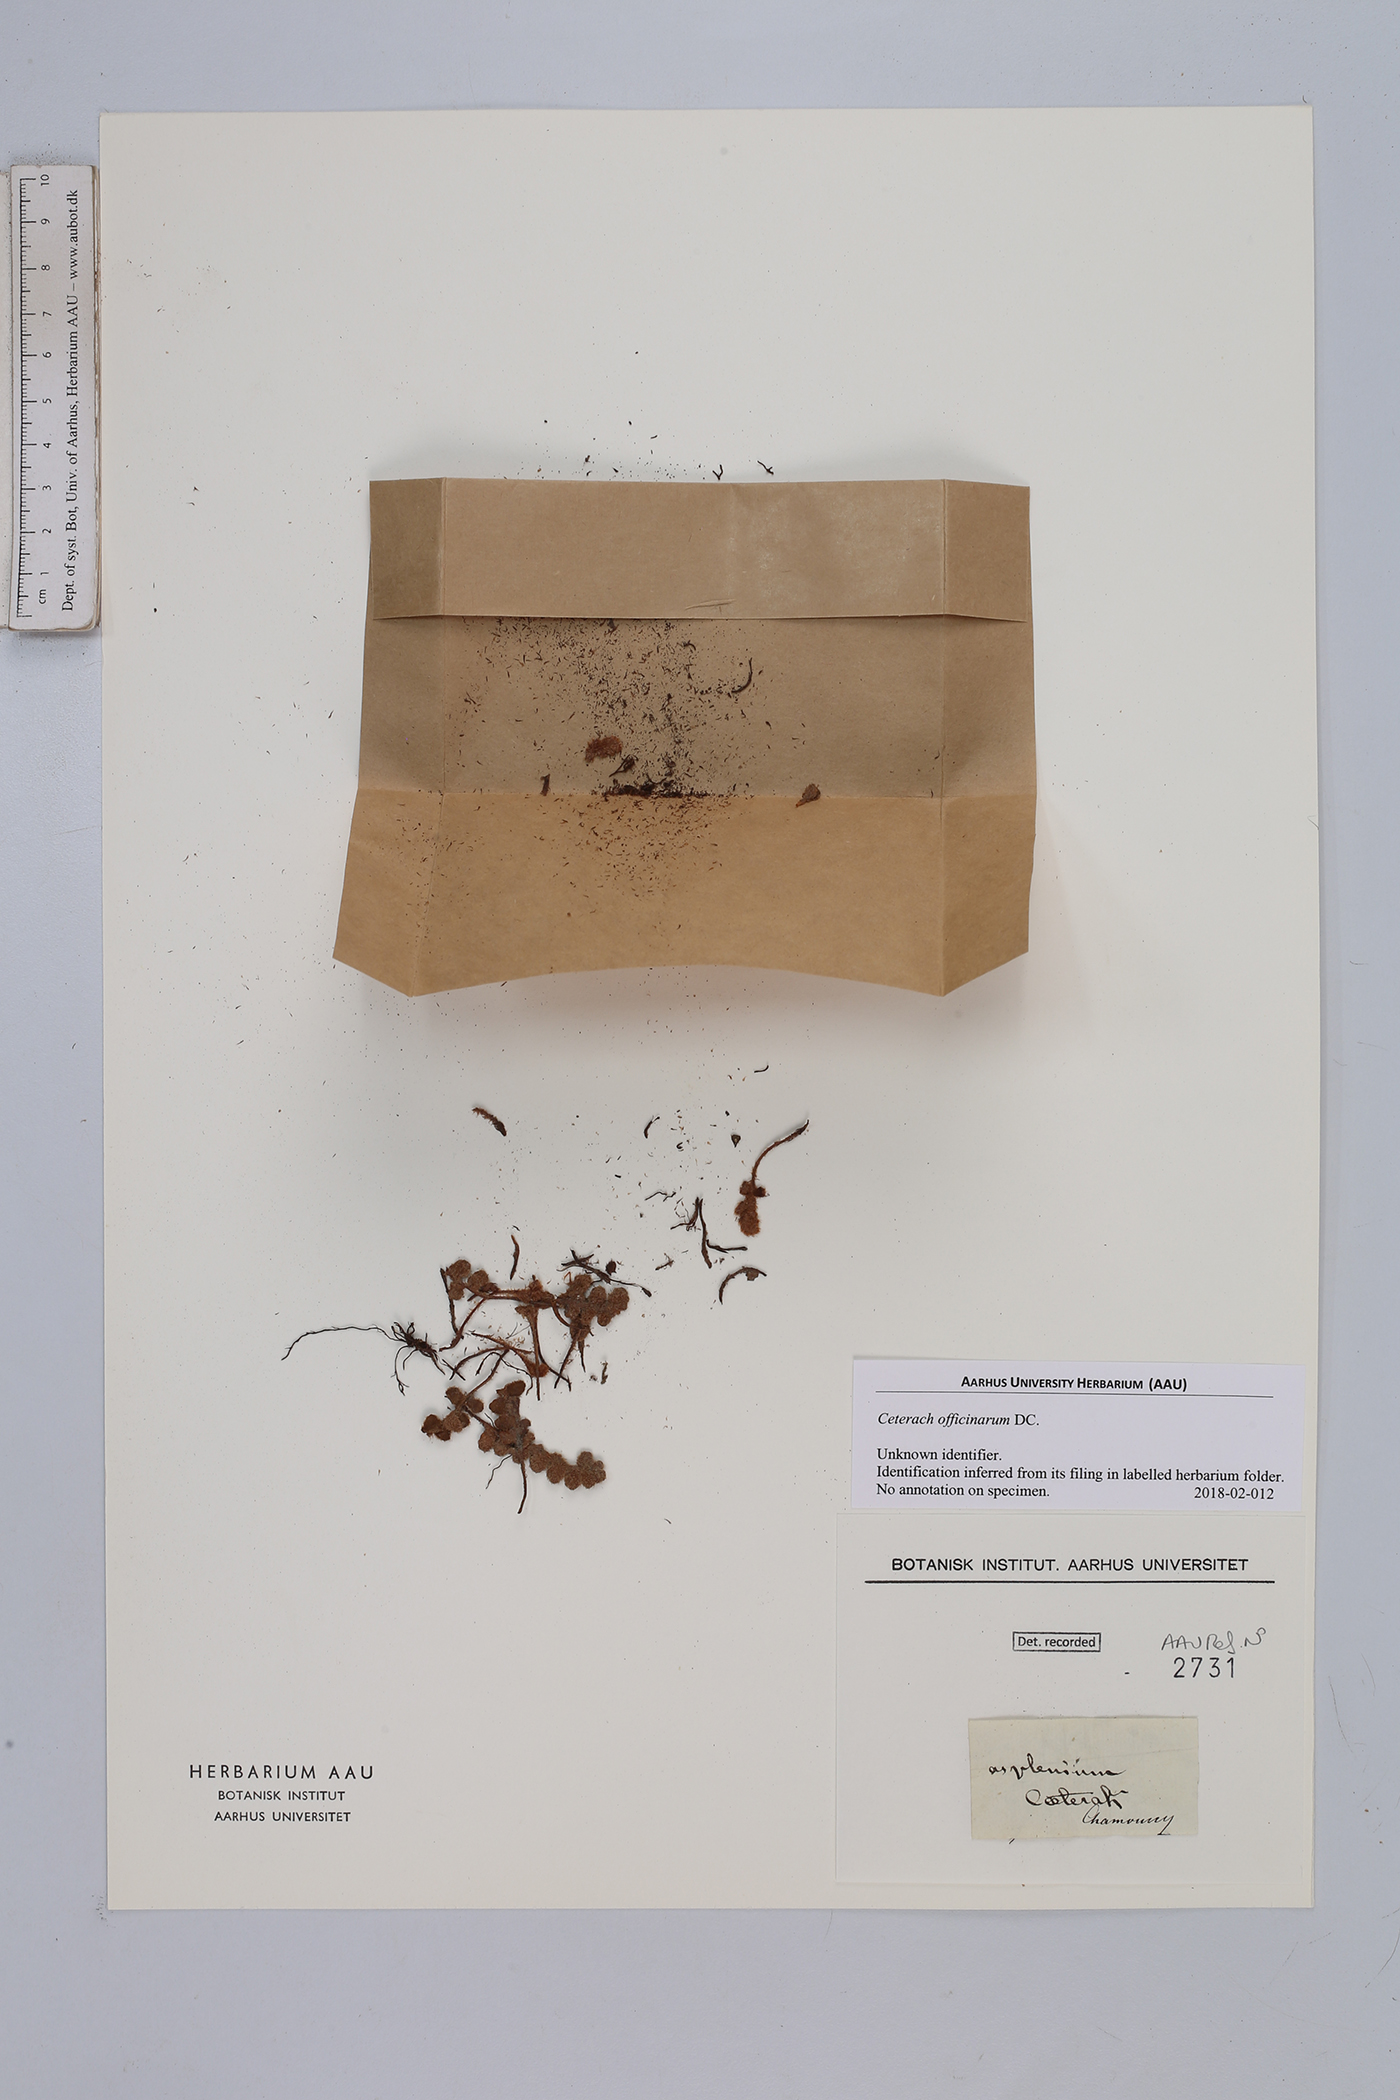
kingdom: Plantae
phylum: Tracheophyta
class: Polypodiopsida
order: Polypodiales
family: Aspleniaceae
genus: Asplenium
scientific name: Asplenium ceterach
